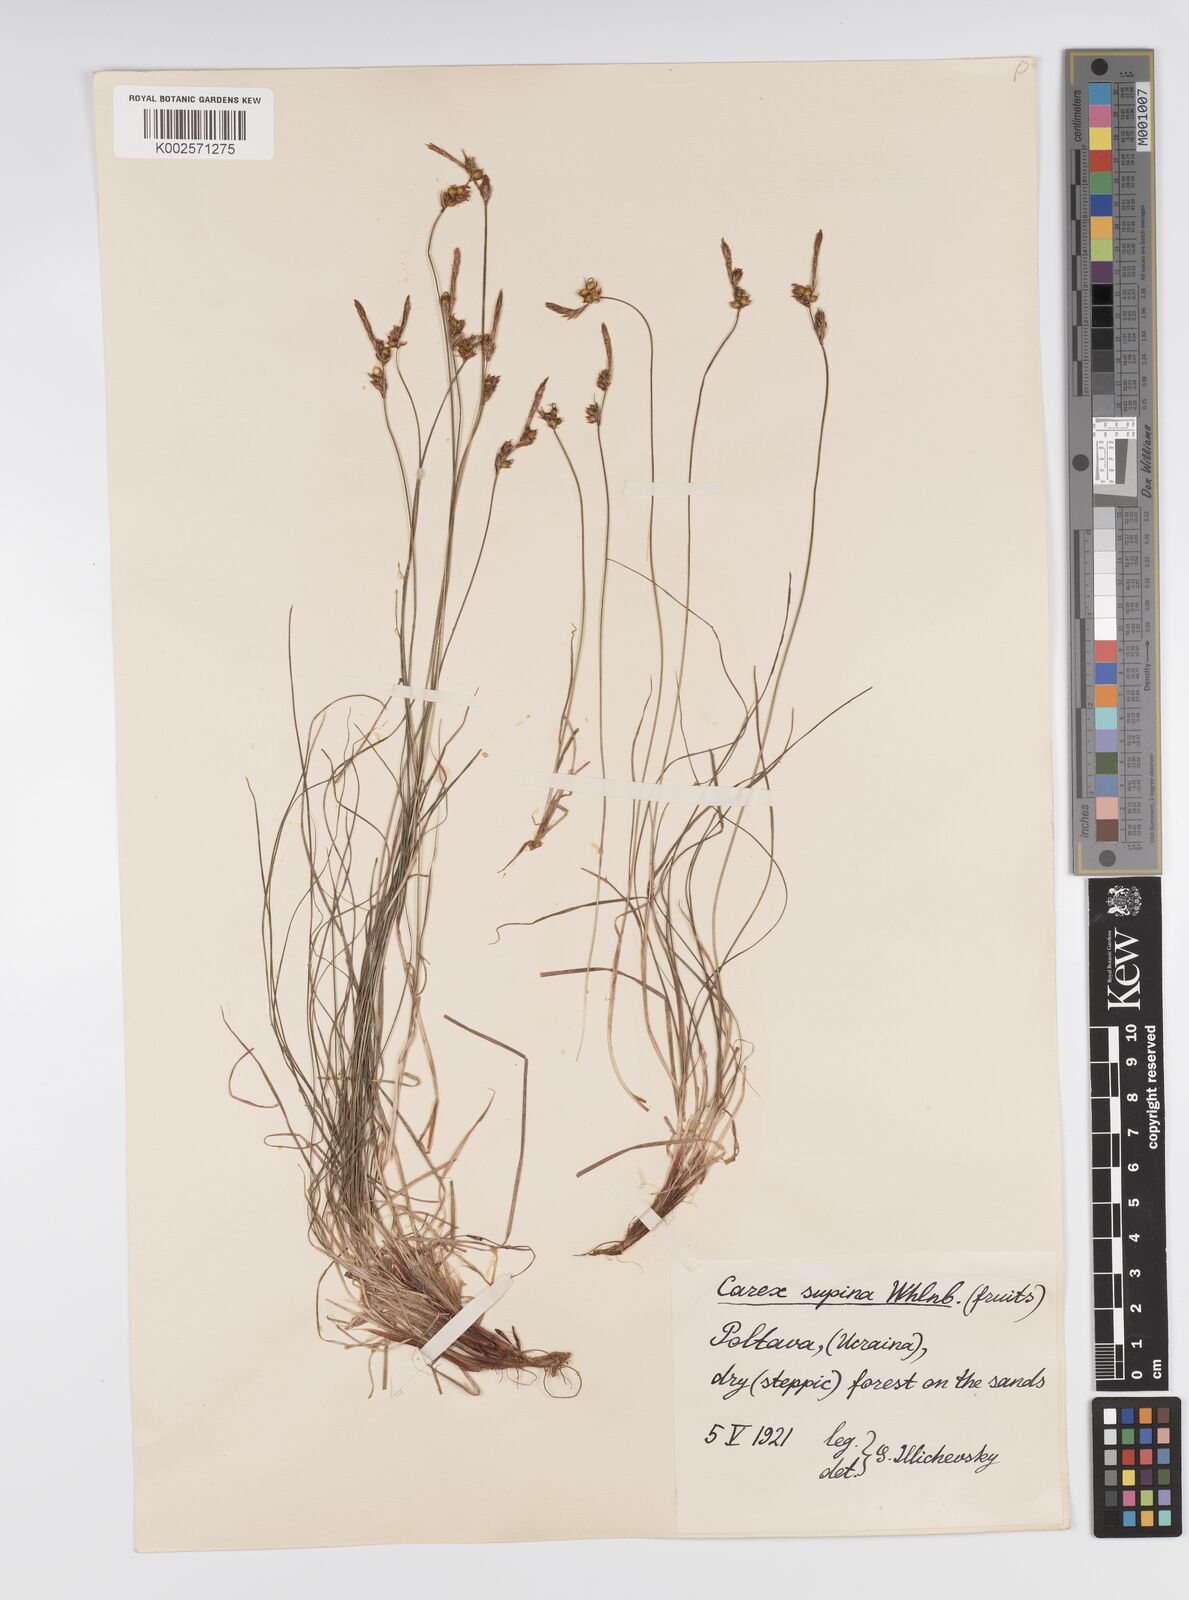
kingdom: Plantae
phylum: Tracheophyta
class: Liliopsida
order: Poales
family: Cyperaceae
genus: Carex
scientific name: Carex supina
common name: Lying-back sedge
